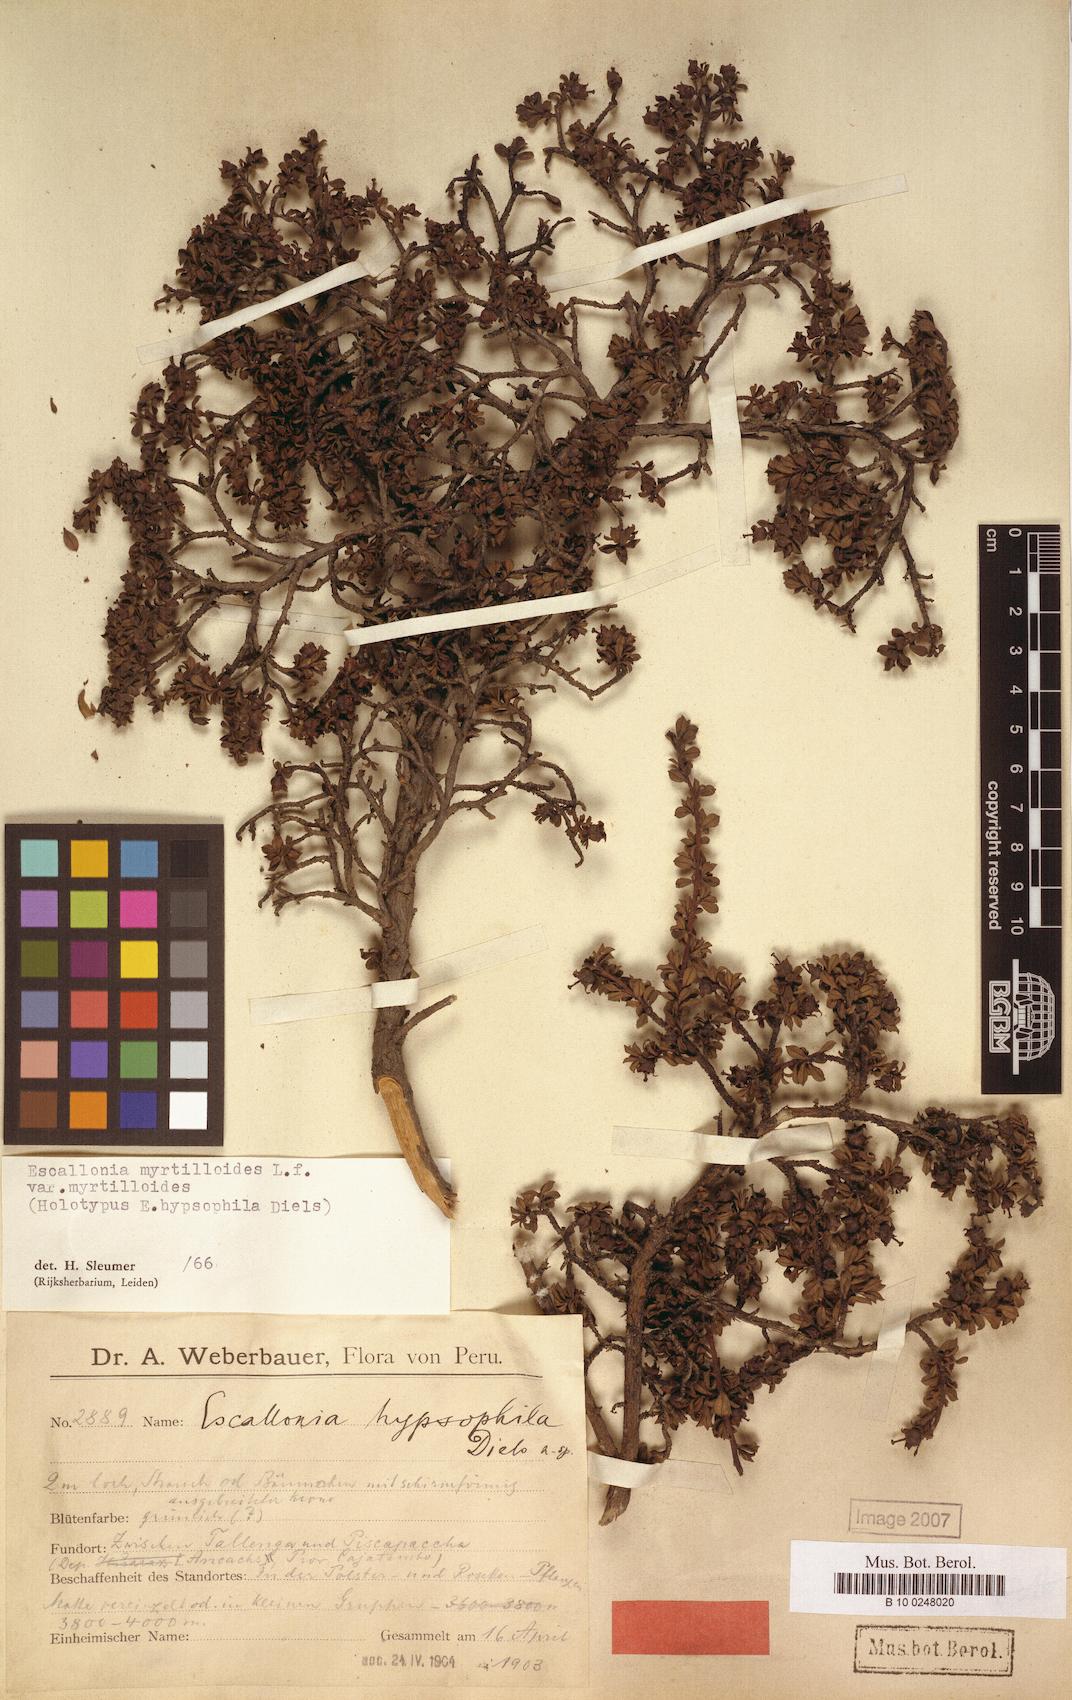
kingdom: Plantae
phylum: Tracheophyta
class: Magnoliopsida
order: Escalloniales
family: Escalloniaceae
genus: Escallonia
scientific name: Escallonia myrtilloides
